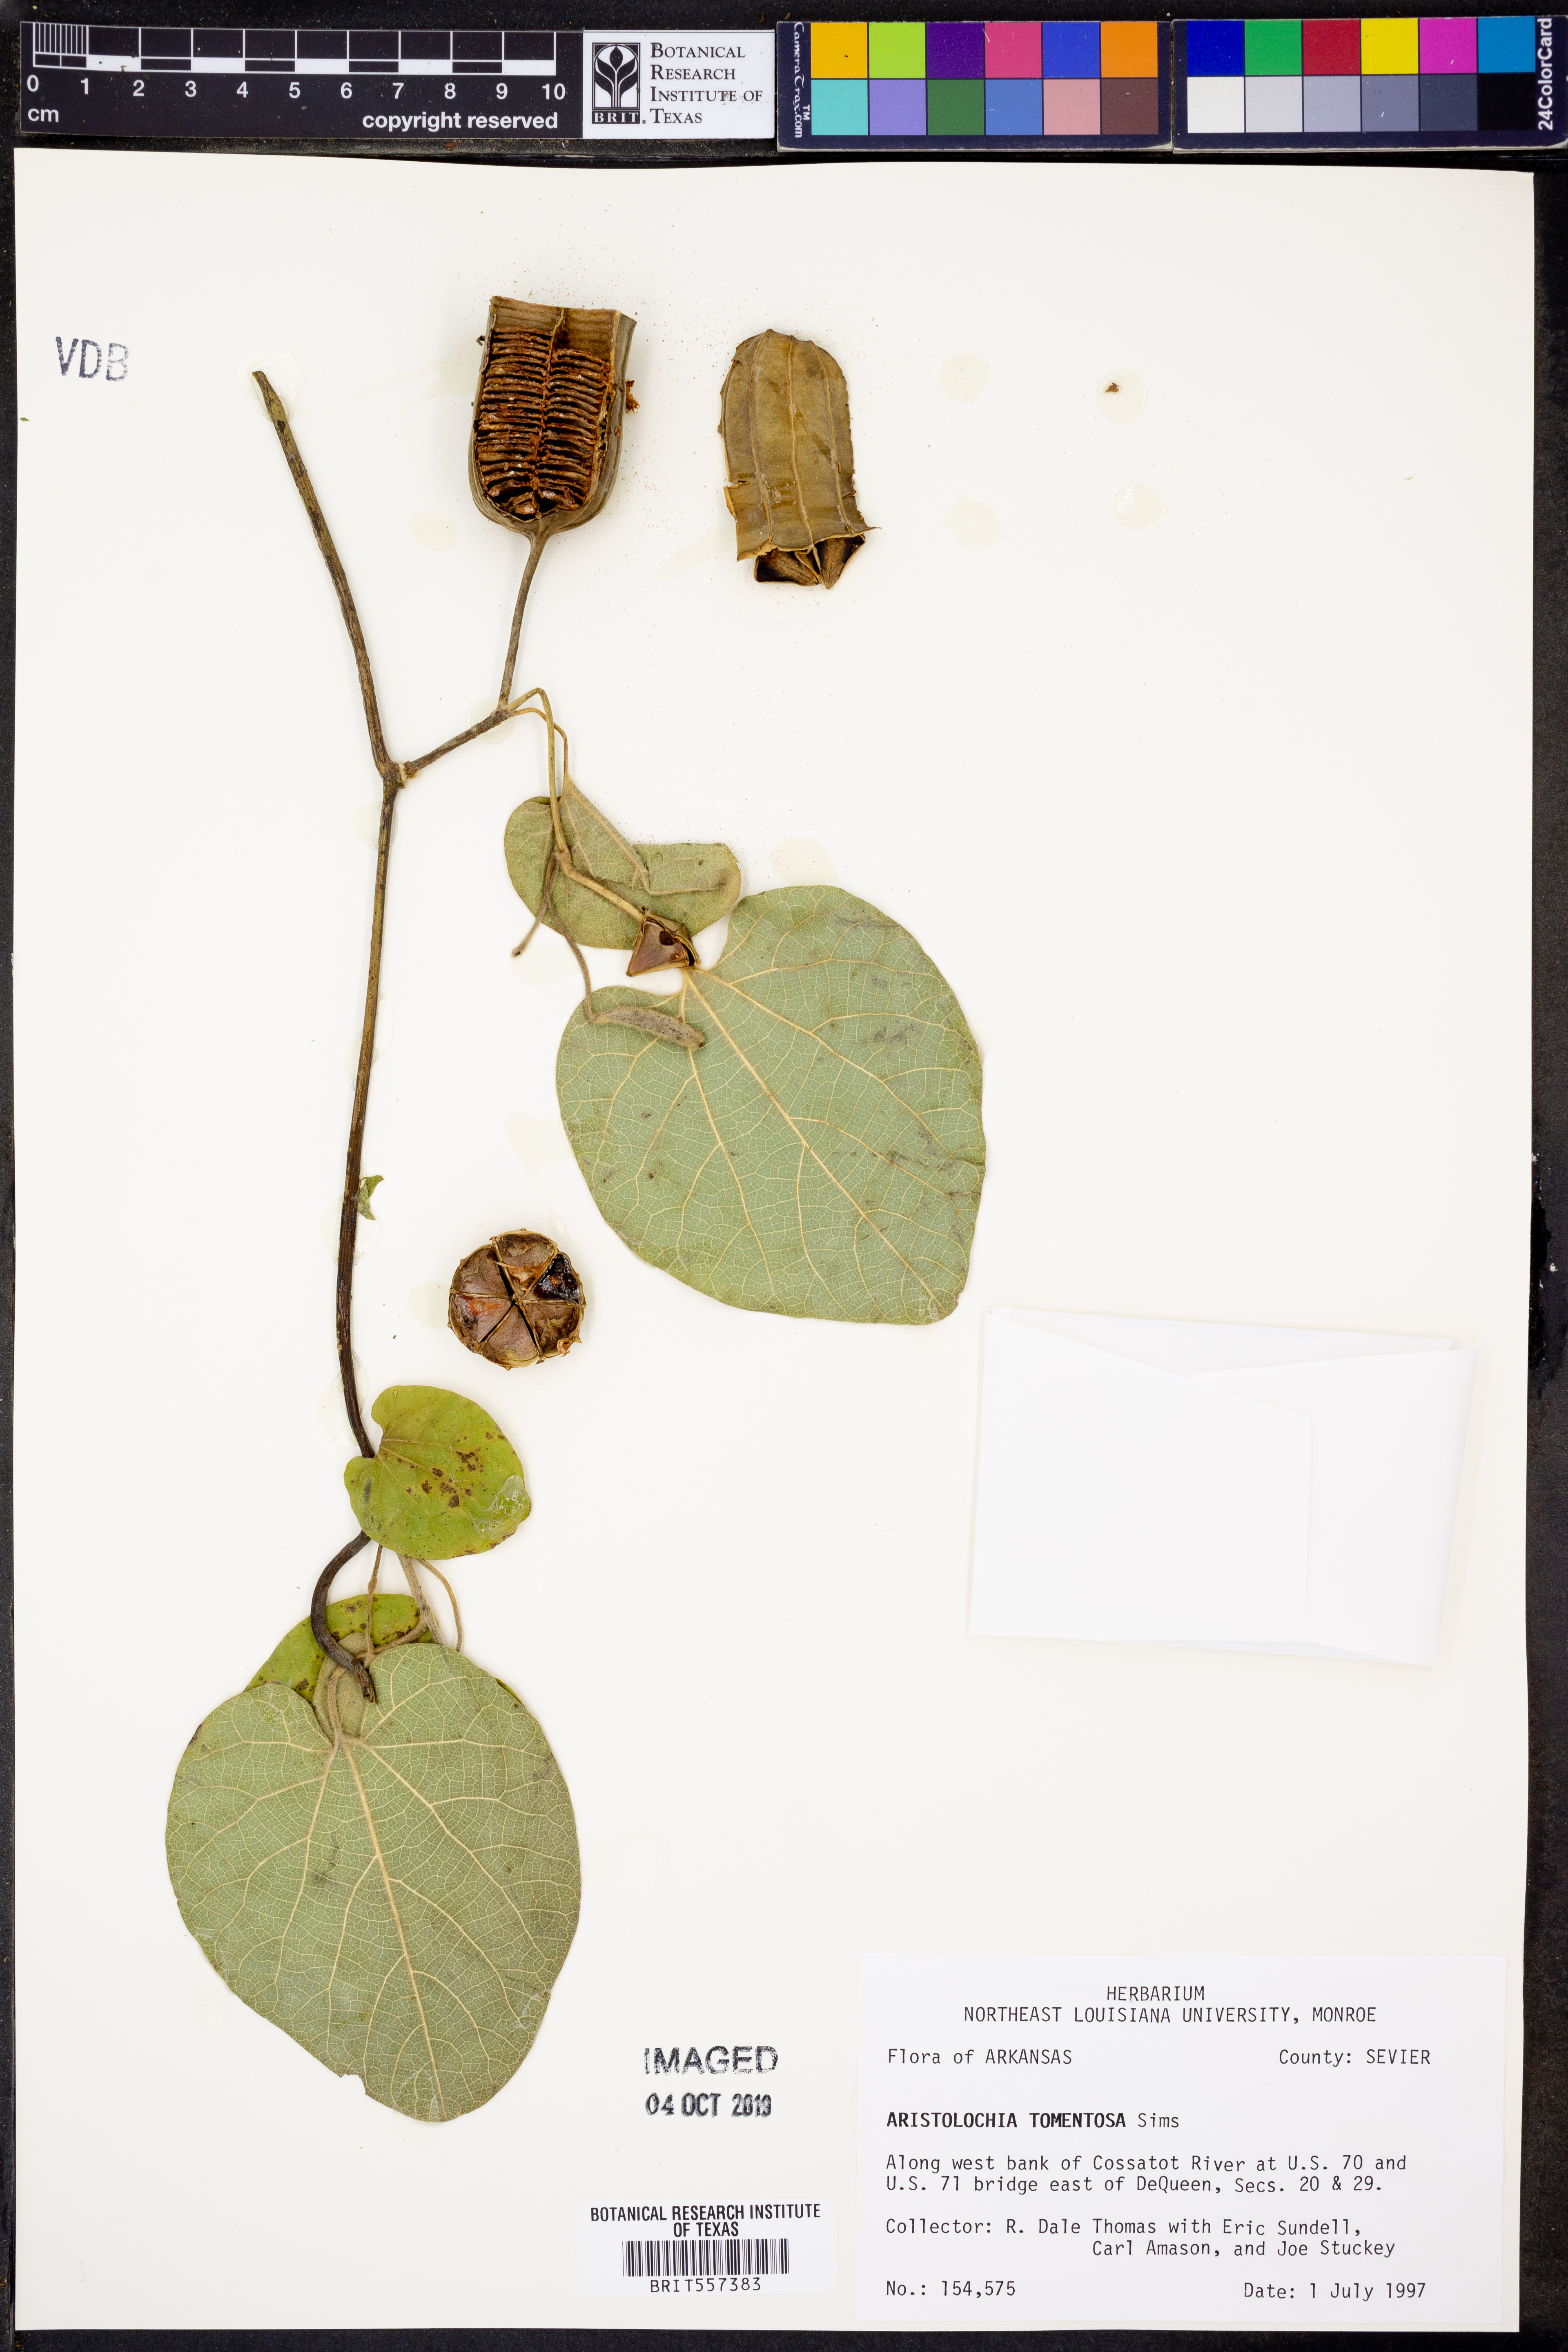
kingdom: Plantae
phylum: Tracheophyta
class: Magnoliopsida
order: Piperales
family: Aristolochiaceae
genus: Isotrema
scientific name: Isotrema tomentosum
